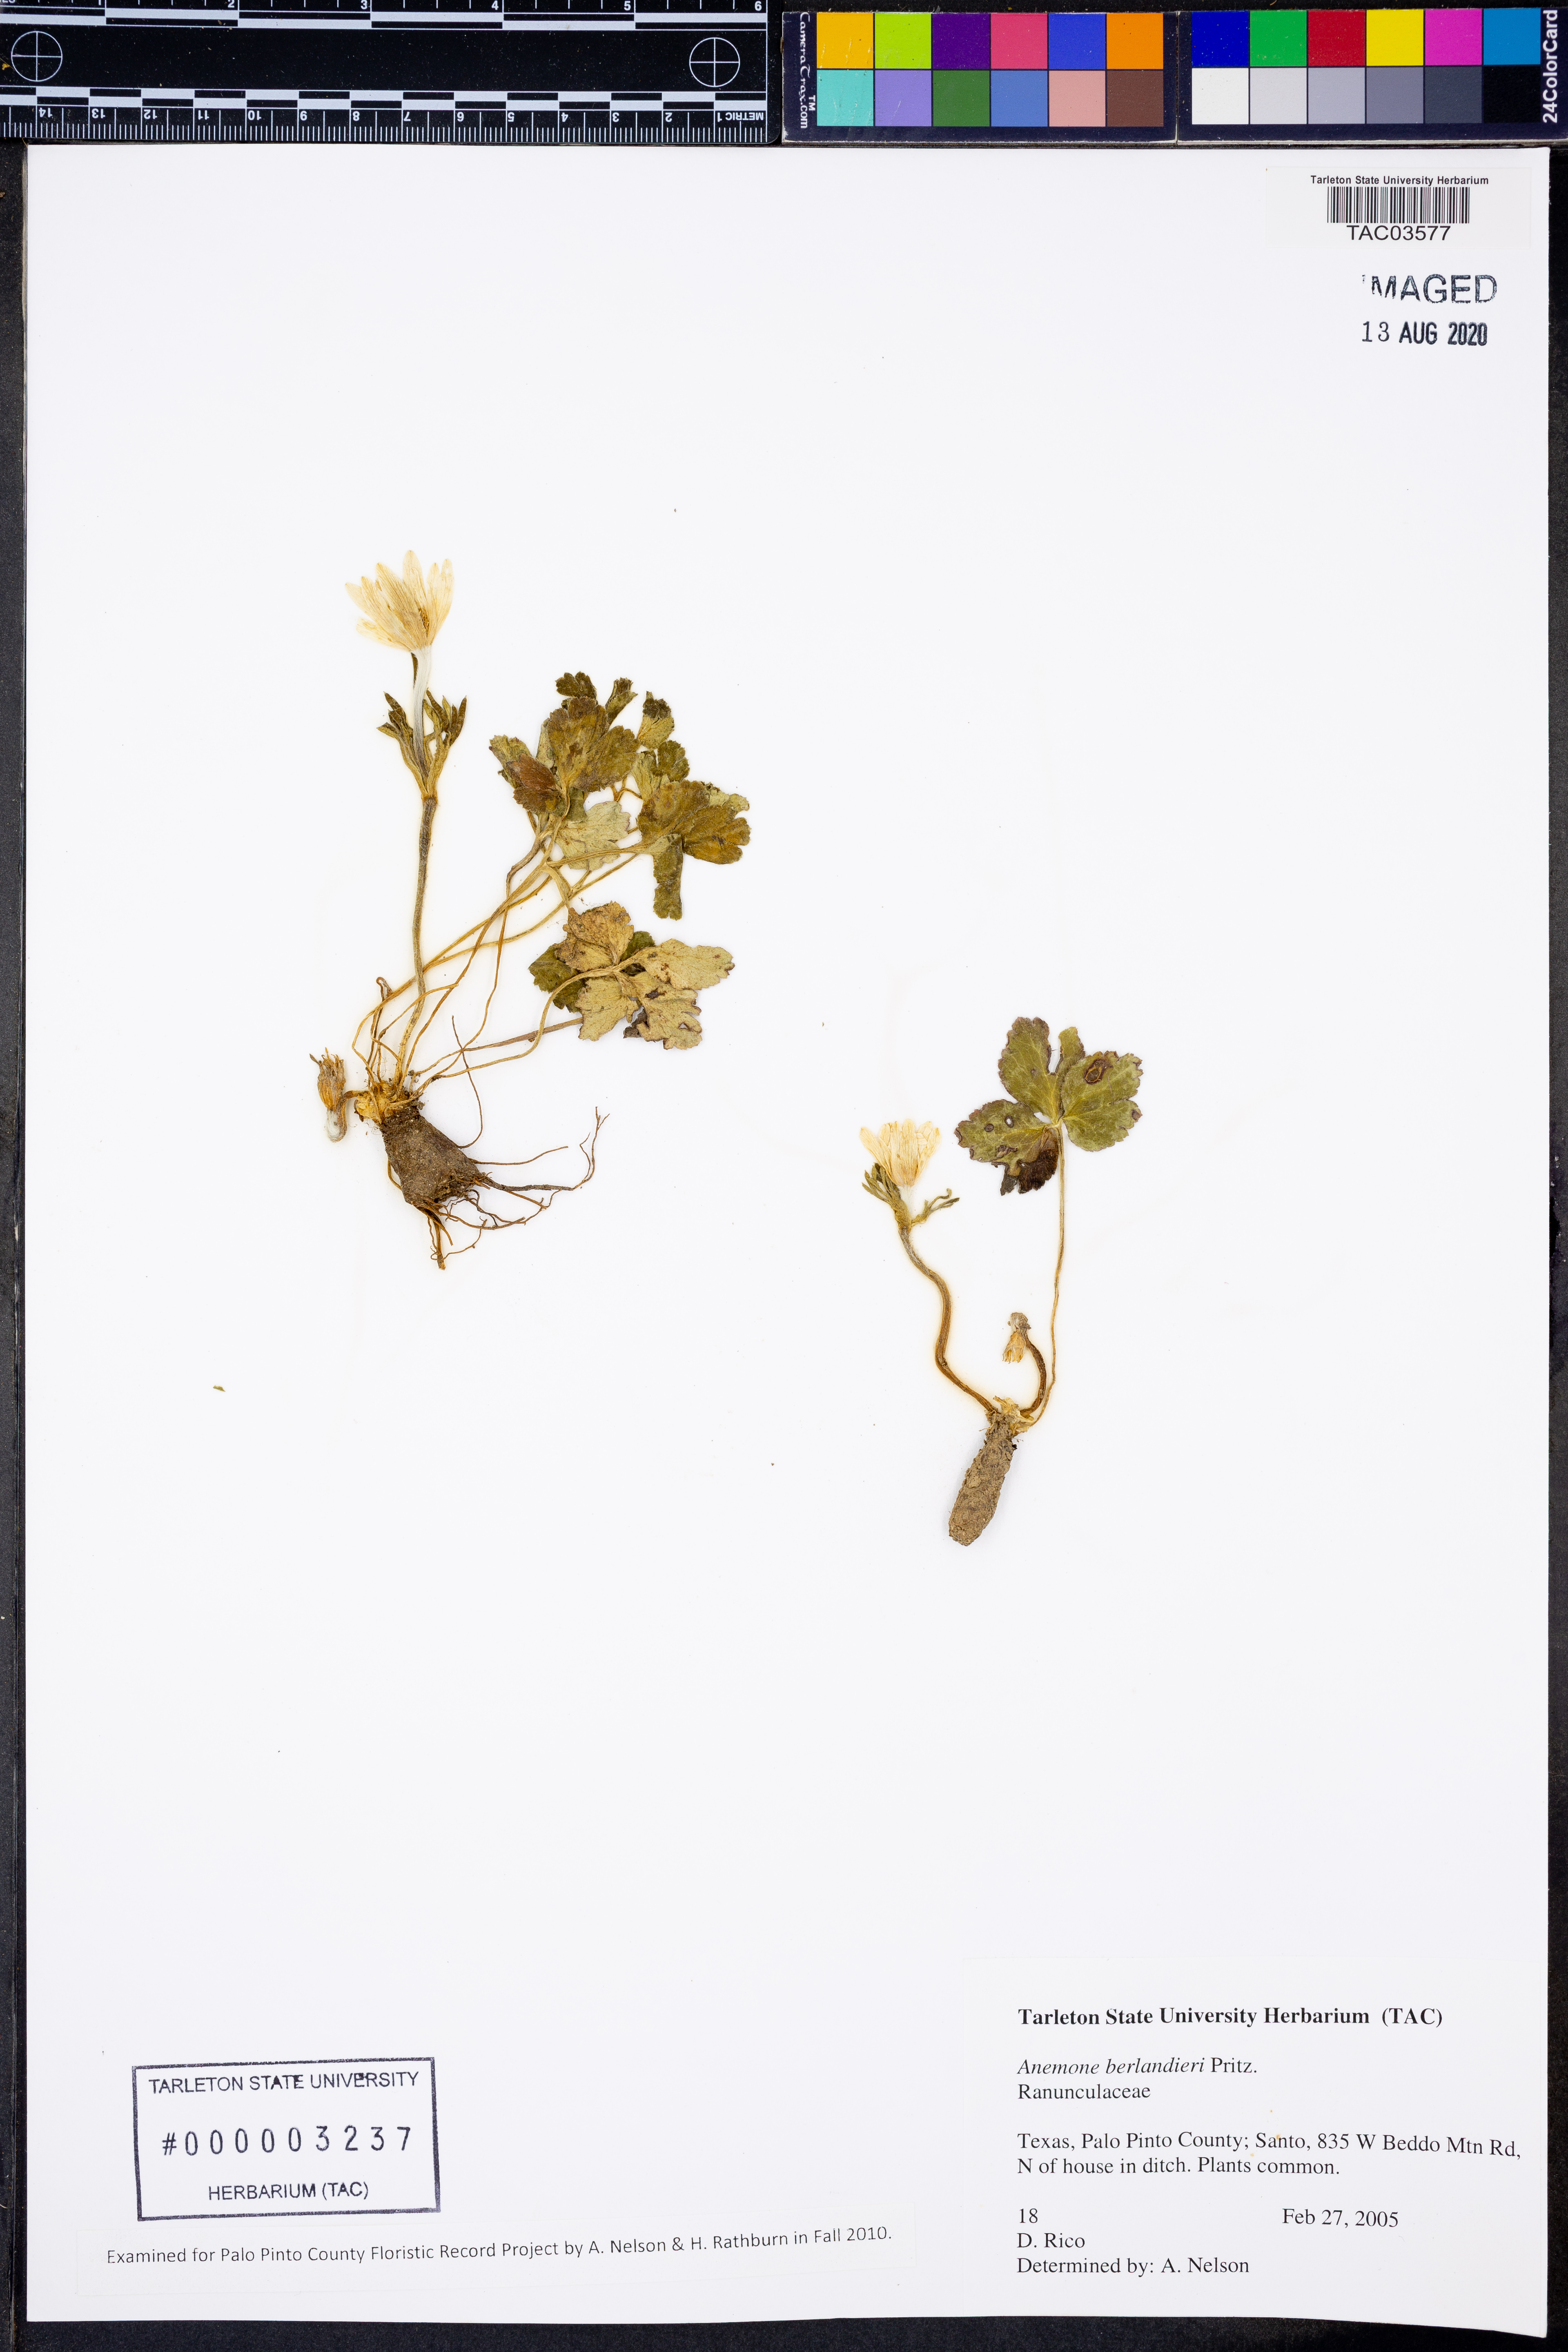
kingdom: Plantae
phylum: Tracheophyta
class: Magnoliopsida
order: Ranunculales
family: Ranunculaceae
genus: Anemone
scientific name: Anemone berlandieri
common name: Ten-petal anemone
